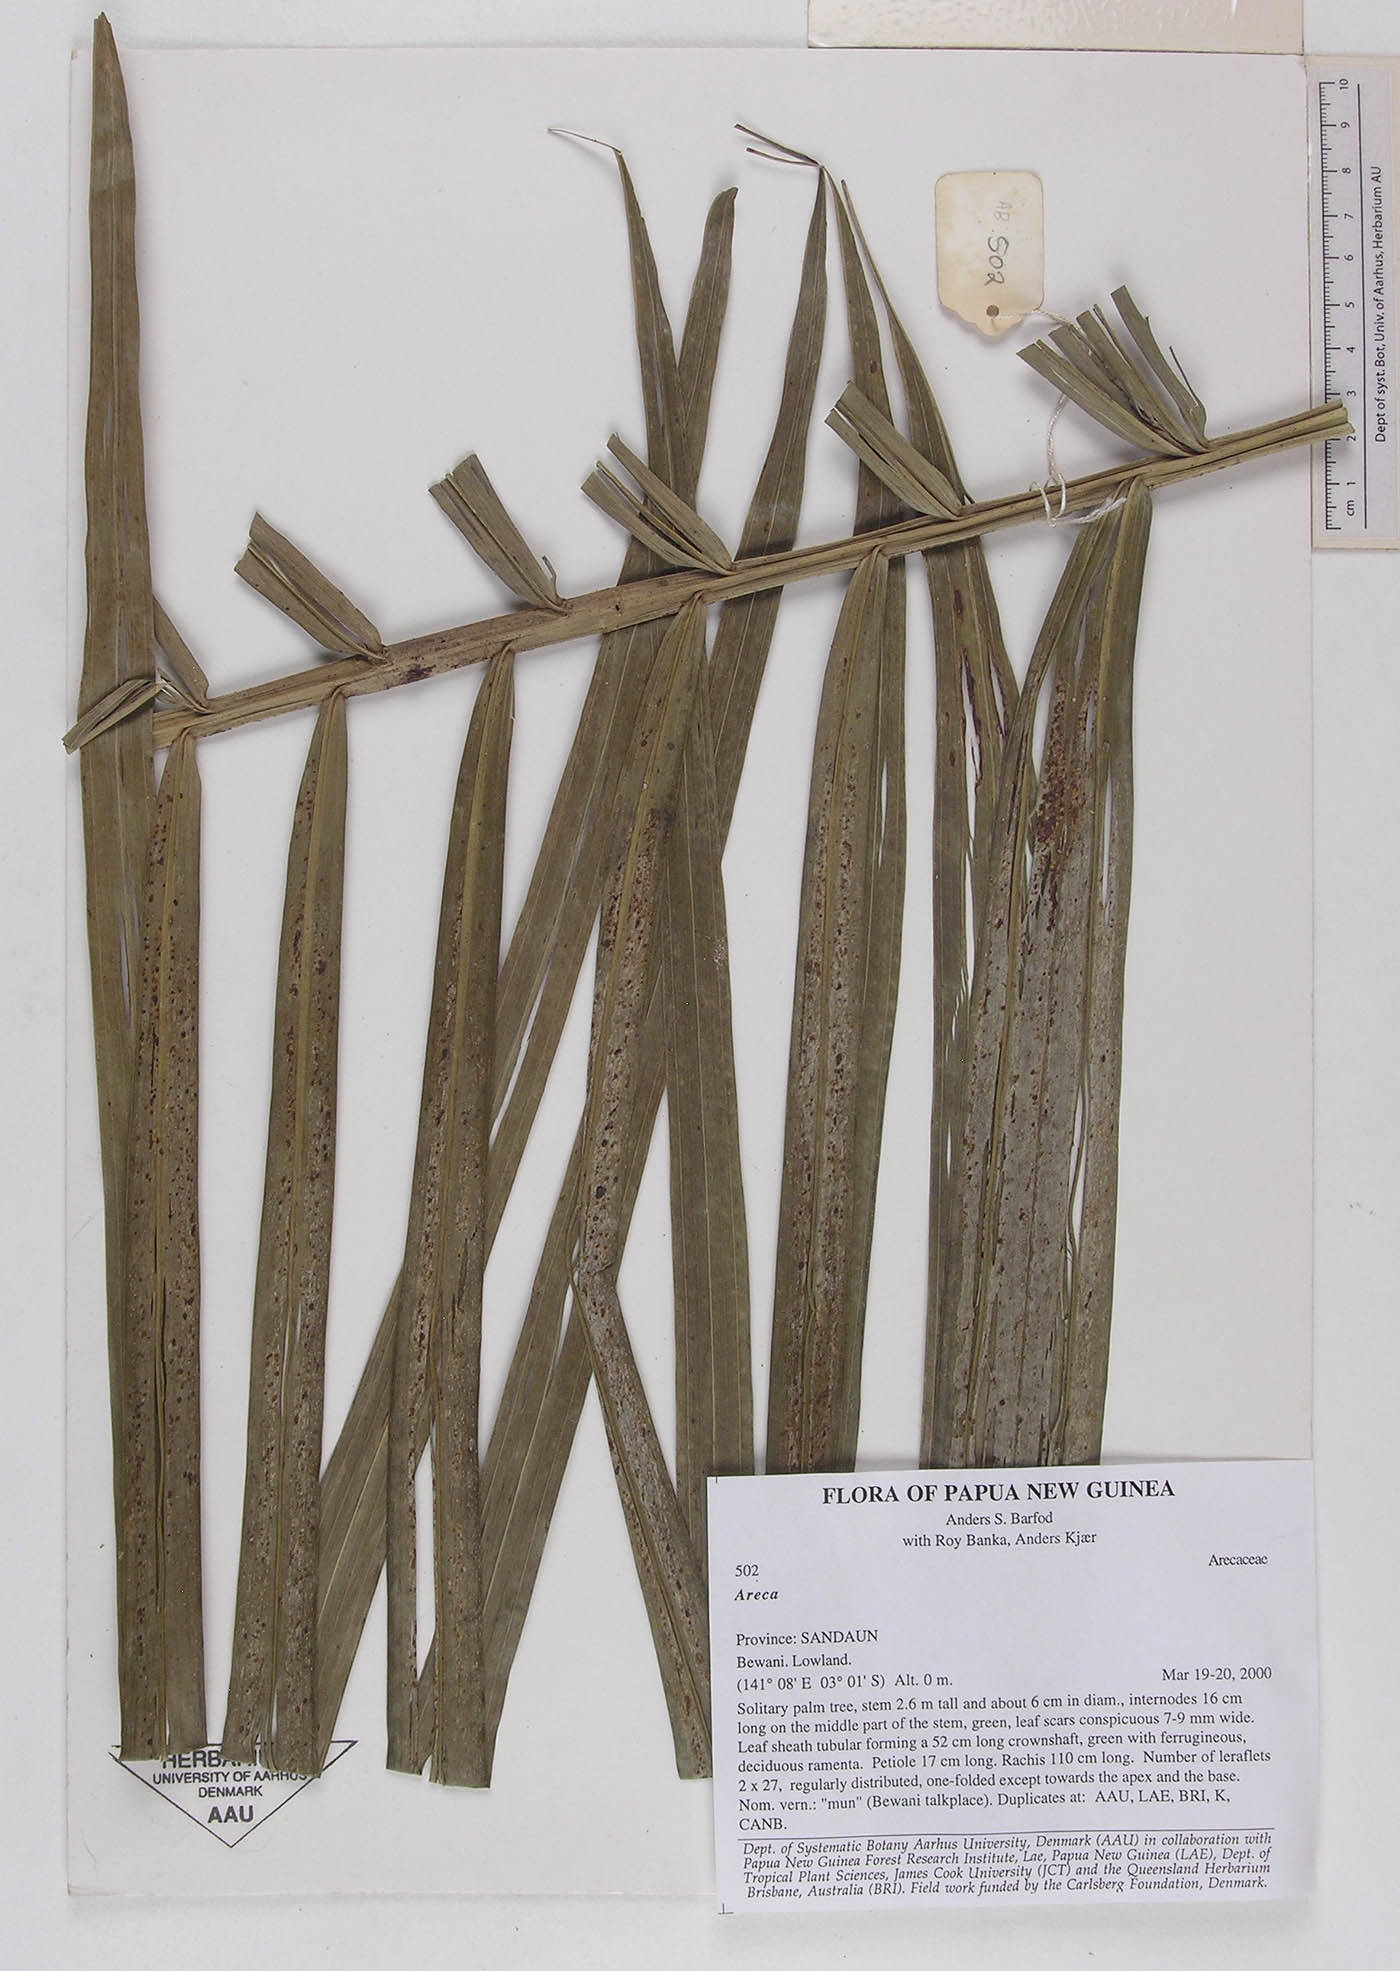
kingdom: Plantae
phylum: Tracheophyta
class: Liliopsida
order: Arecales
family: Arecaceae
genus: Areca
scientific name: Areca
